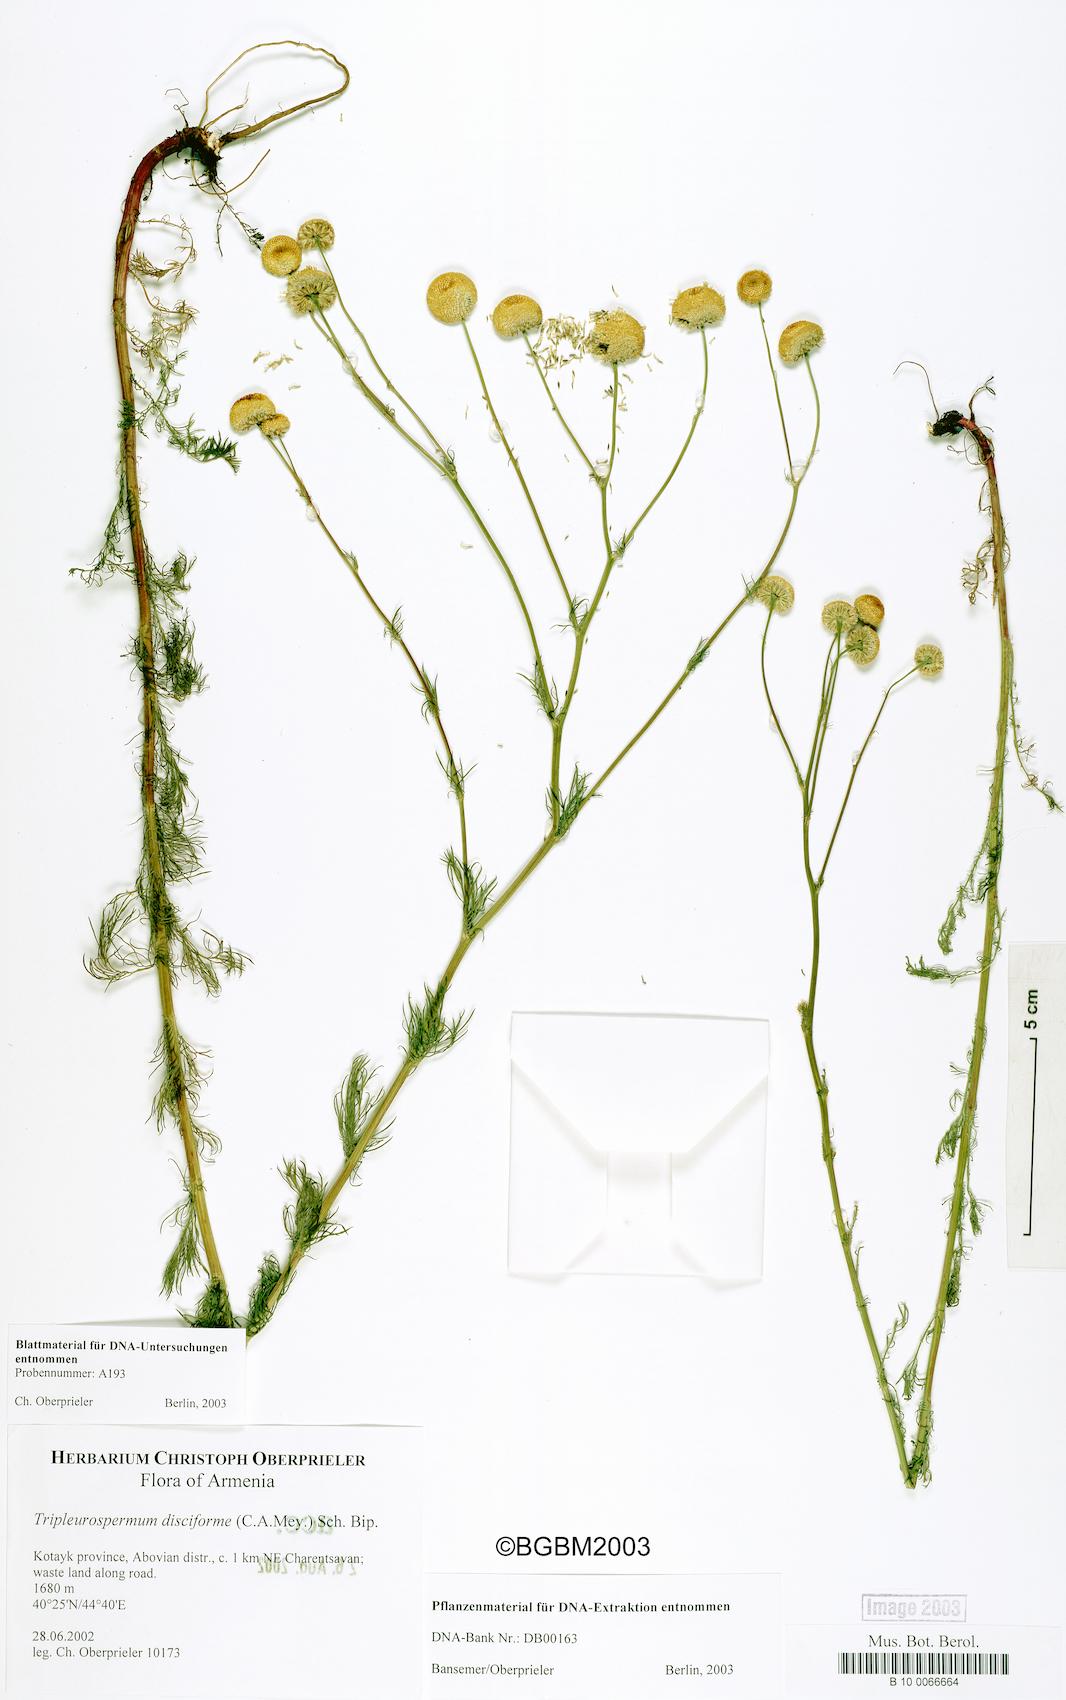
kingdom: Plantae
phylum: Tracheophyta
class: Magnoliopsida
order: Asterales
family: Asteraceae
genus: Tripleurospermum
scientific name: Tripleurospermum disciforme
